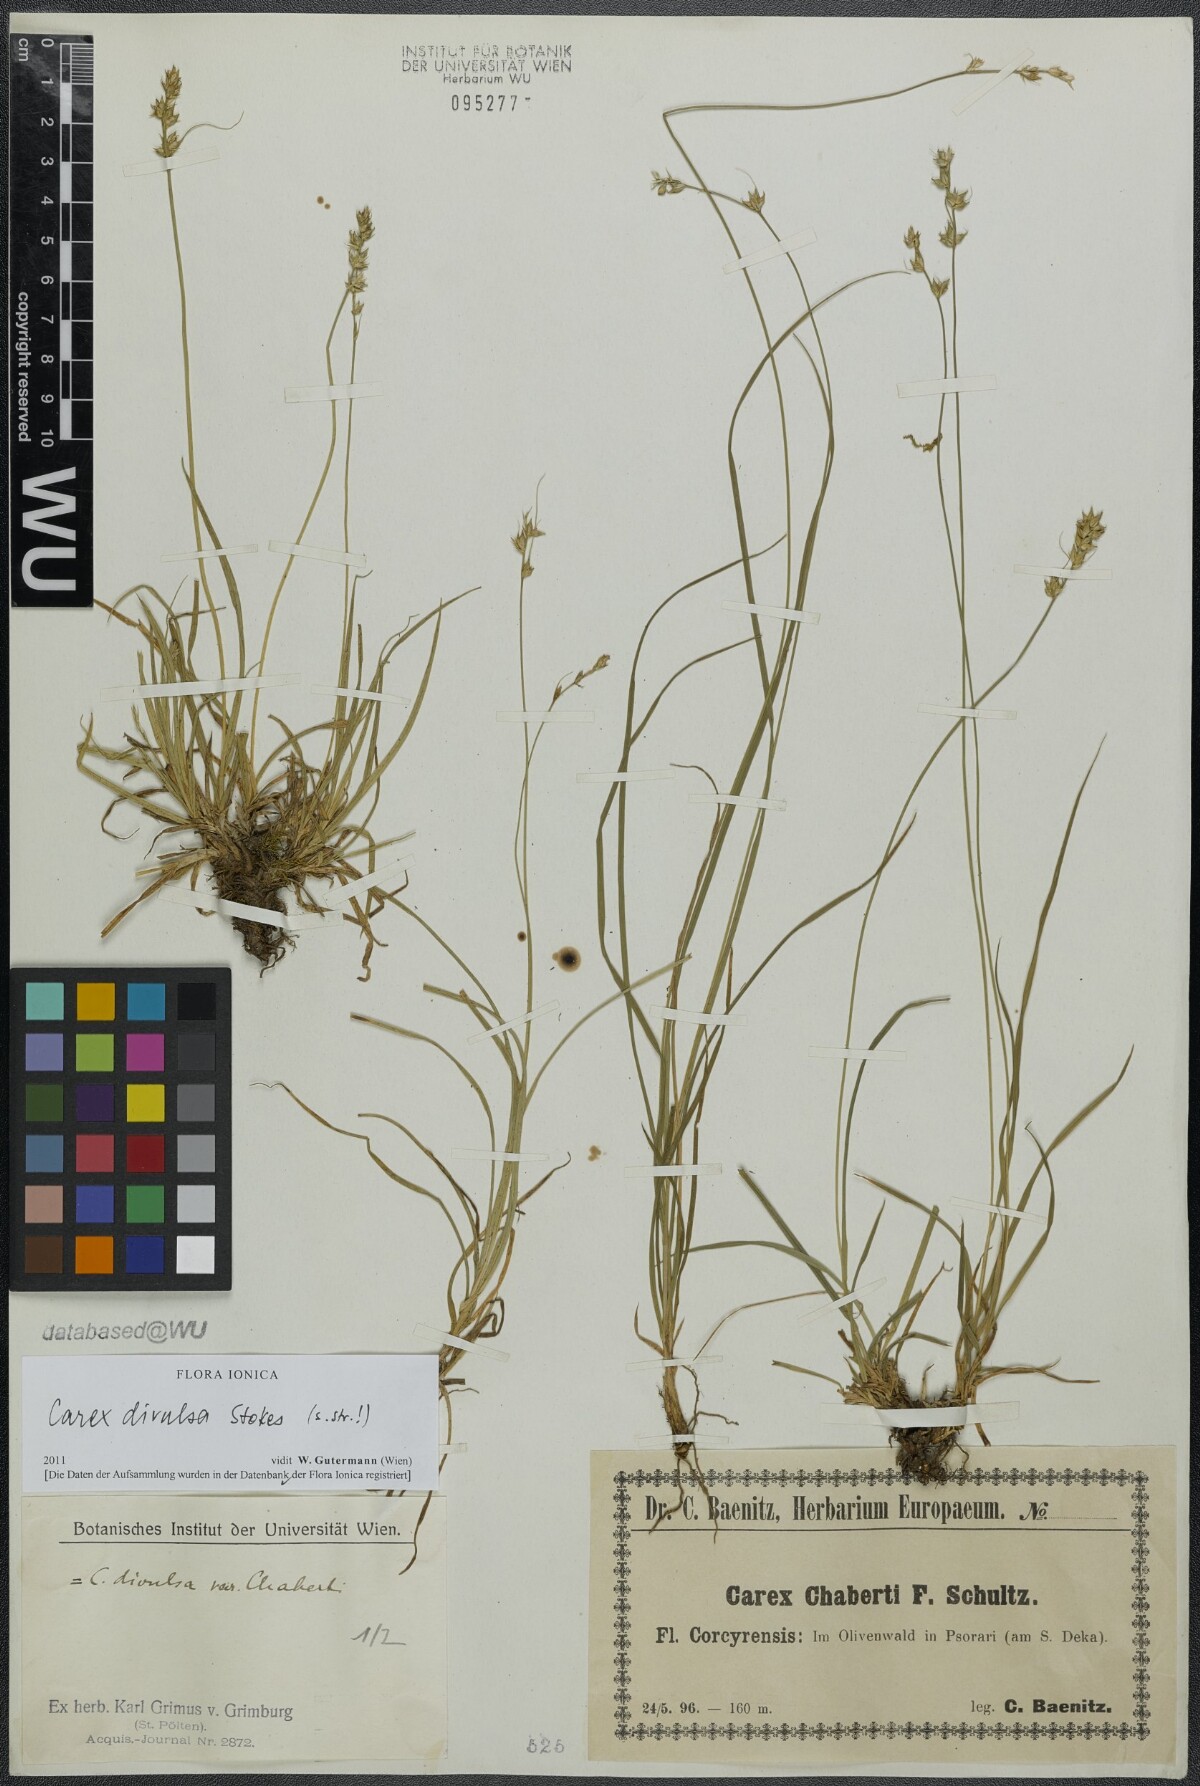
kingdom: Plantae
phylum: Tracheophyta
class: Liliopsida
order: Poales
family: Cyperaceae
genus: Carex
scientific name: Carex divulsa
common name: Grassland sedge
